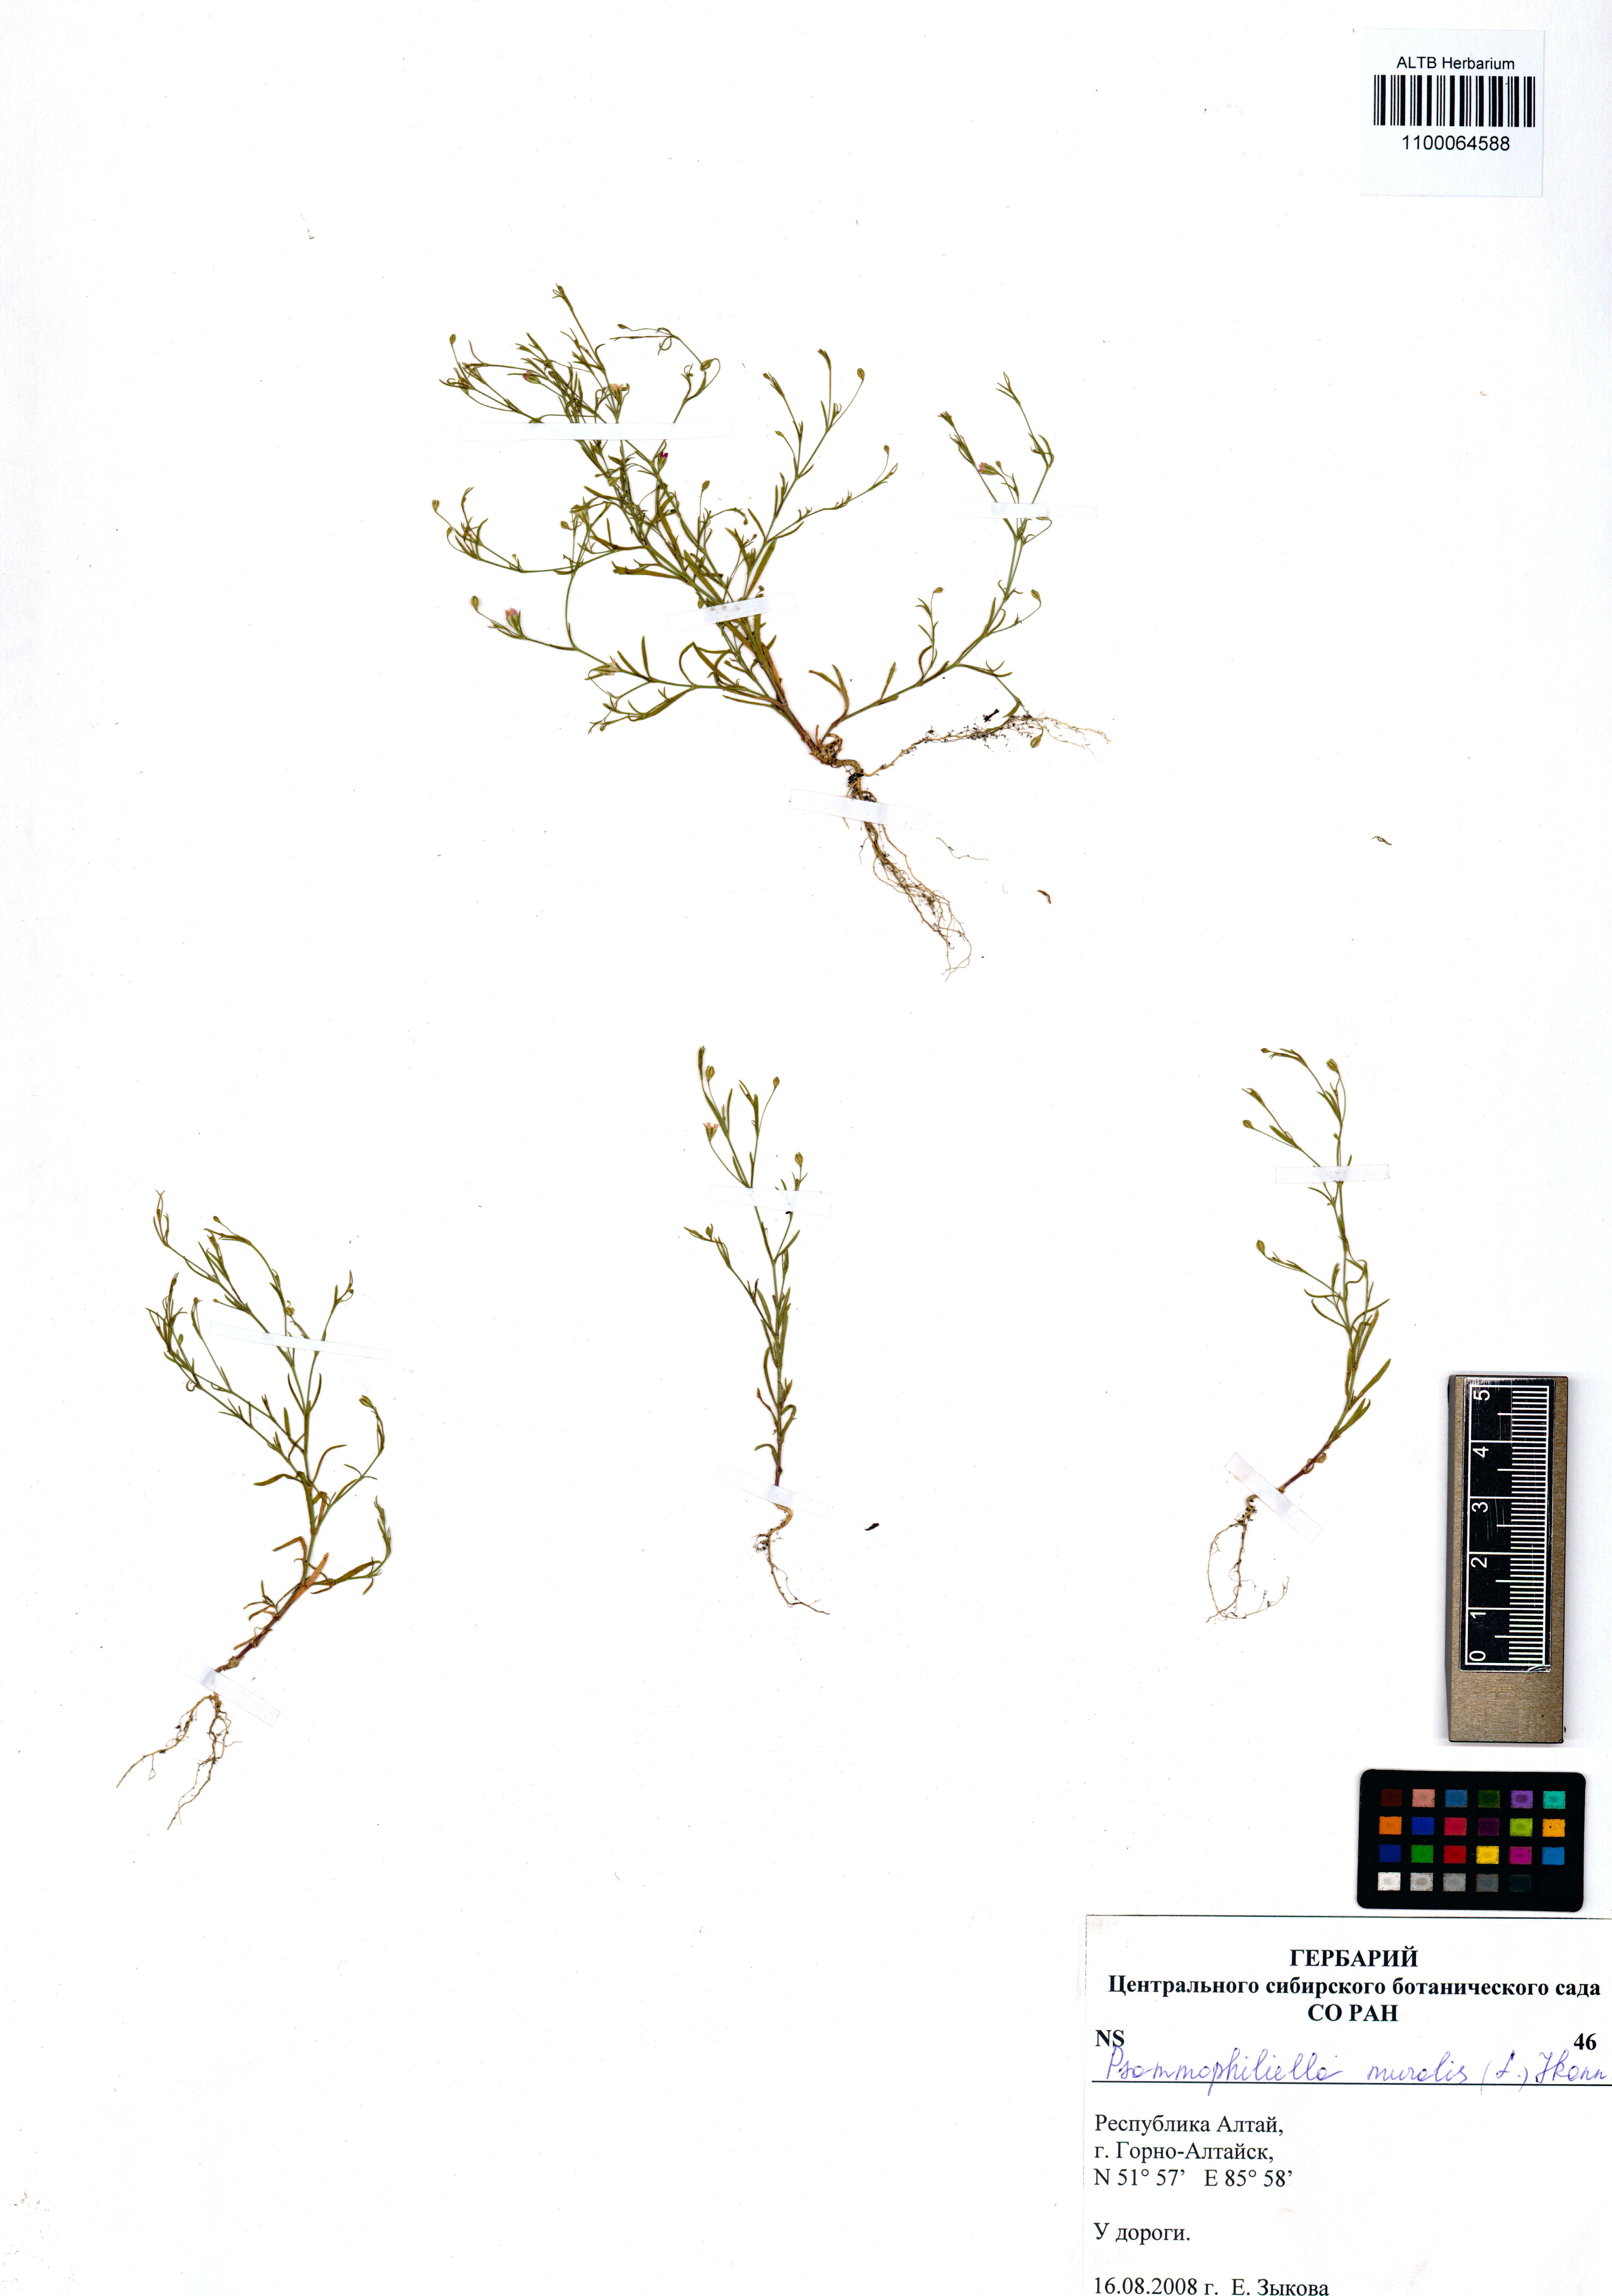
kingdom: Plantae
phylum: Tracheophyta
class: Magnoliopsida
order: Caryophyllales
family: Caryophyllaceae
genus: Psammophiliella
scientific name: Psammophiliella muralis
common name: Cushion baby's-breath
